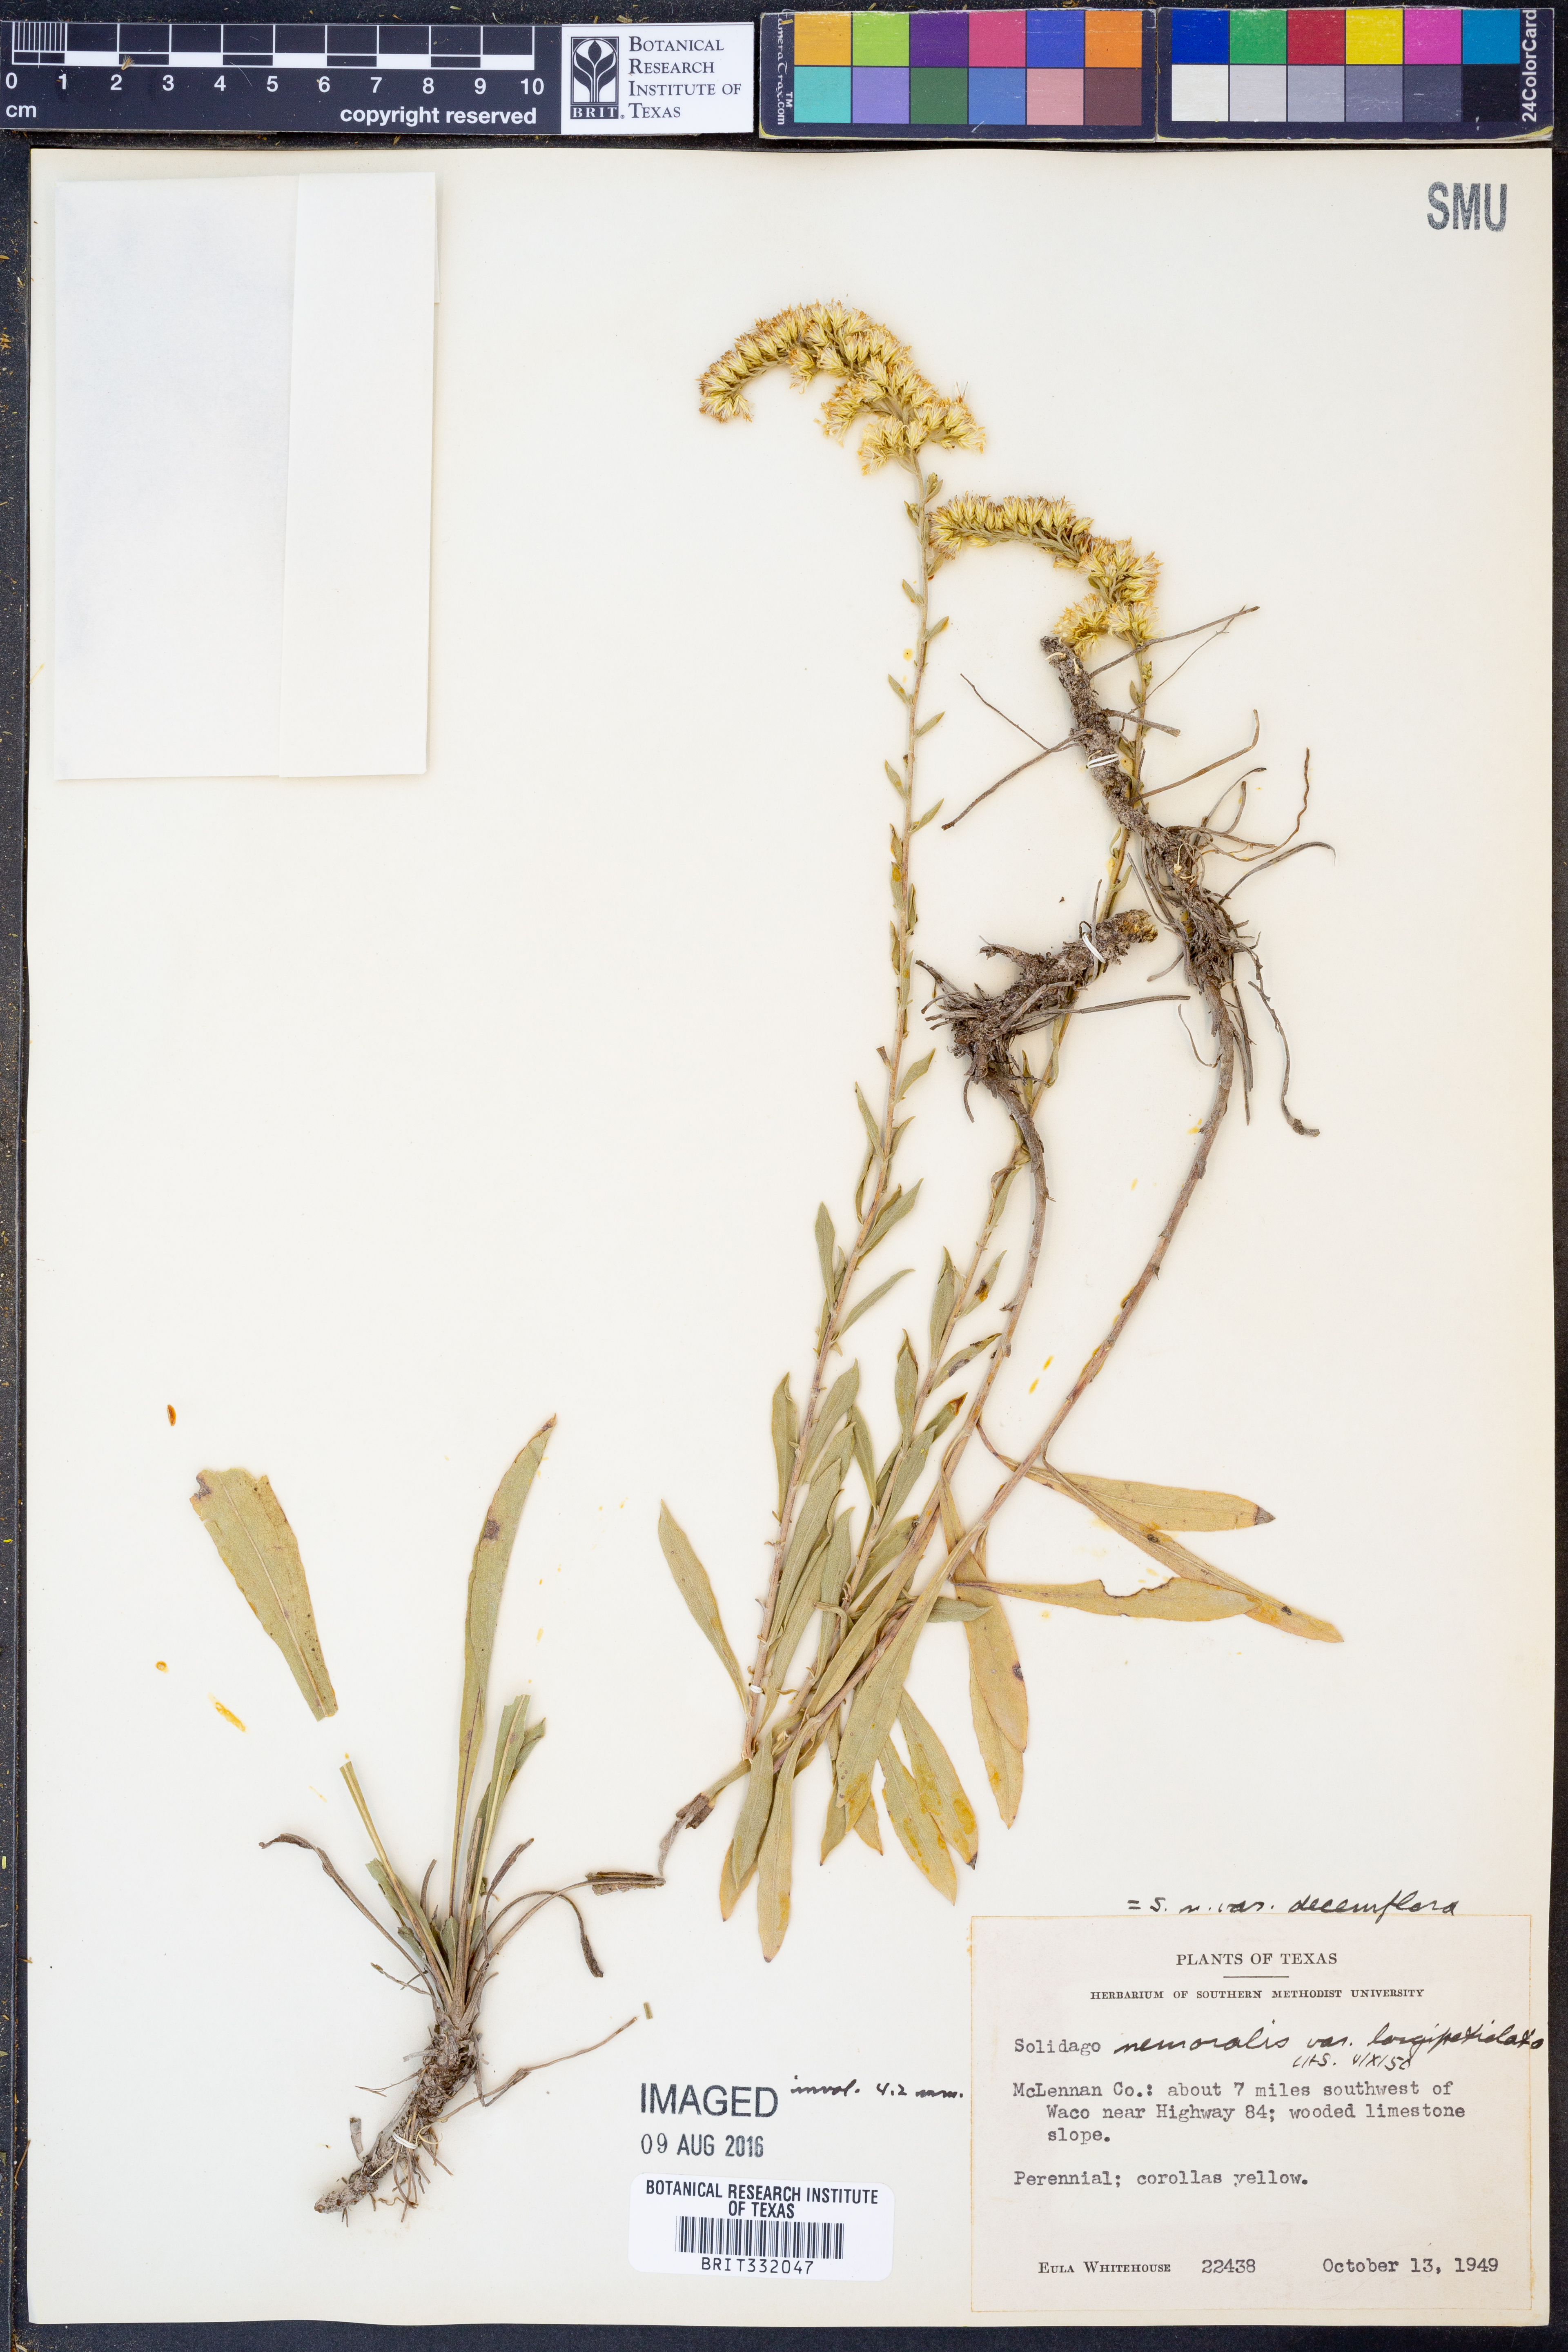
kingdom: Plantae
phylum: Tracheophyta
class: Magnoliopsida
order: Asterales
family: Asteraceae
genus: Solidago
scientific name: Solidago decemflora
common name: Prairie grey-stemmed goldenrod
